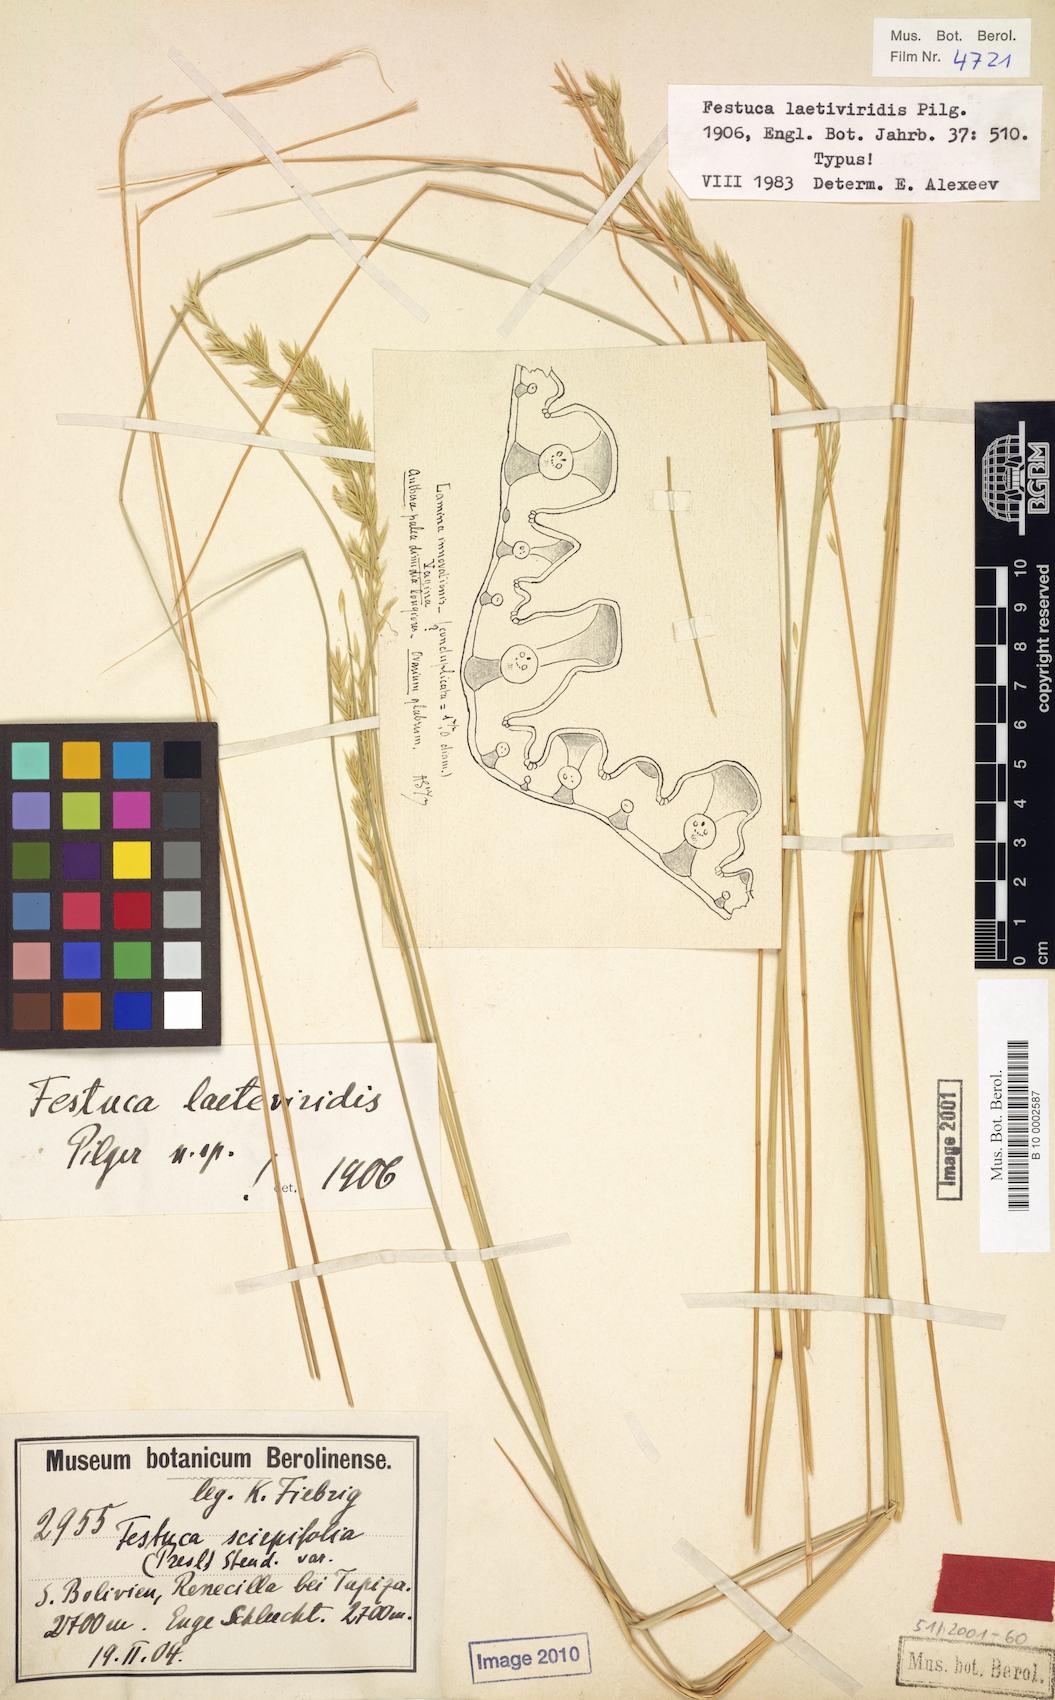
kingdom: Plantae
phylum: Tracheophyta
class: Liliopsida
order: Poales
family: Poaceae
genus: Festuca
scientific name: Festuca dolichophylla
